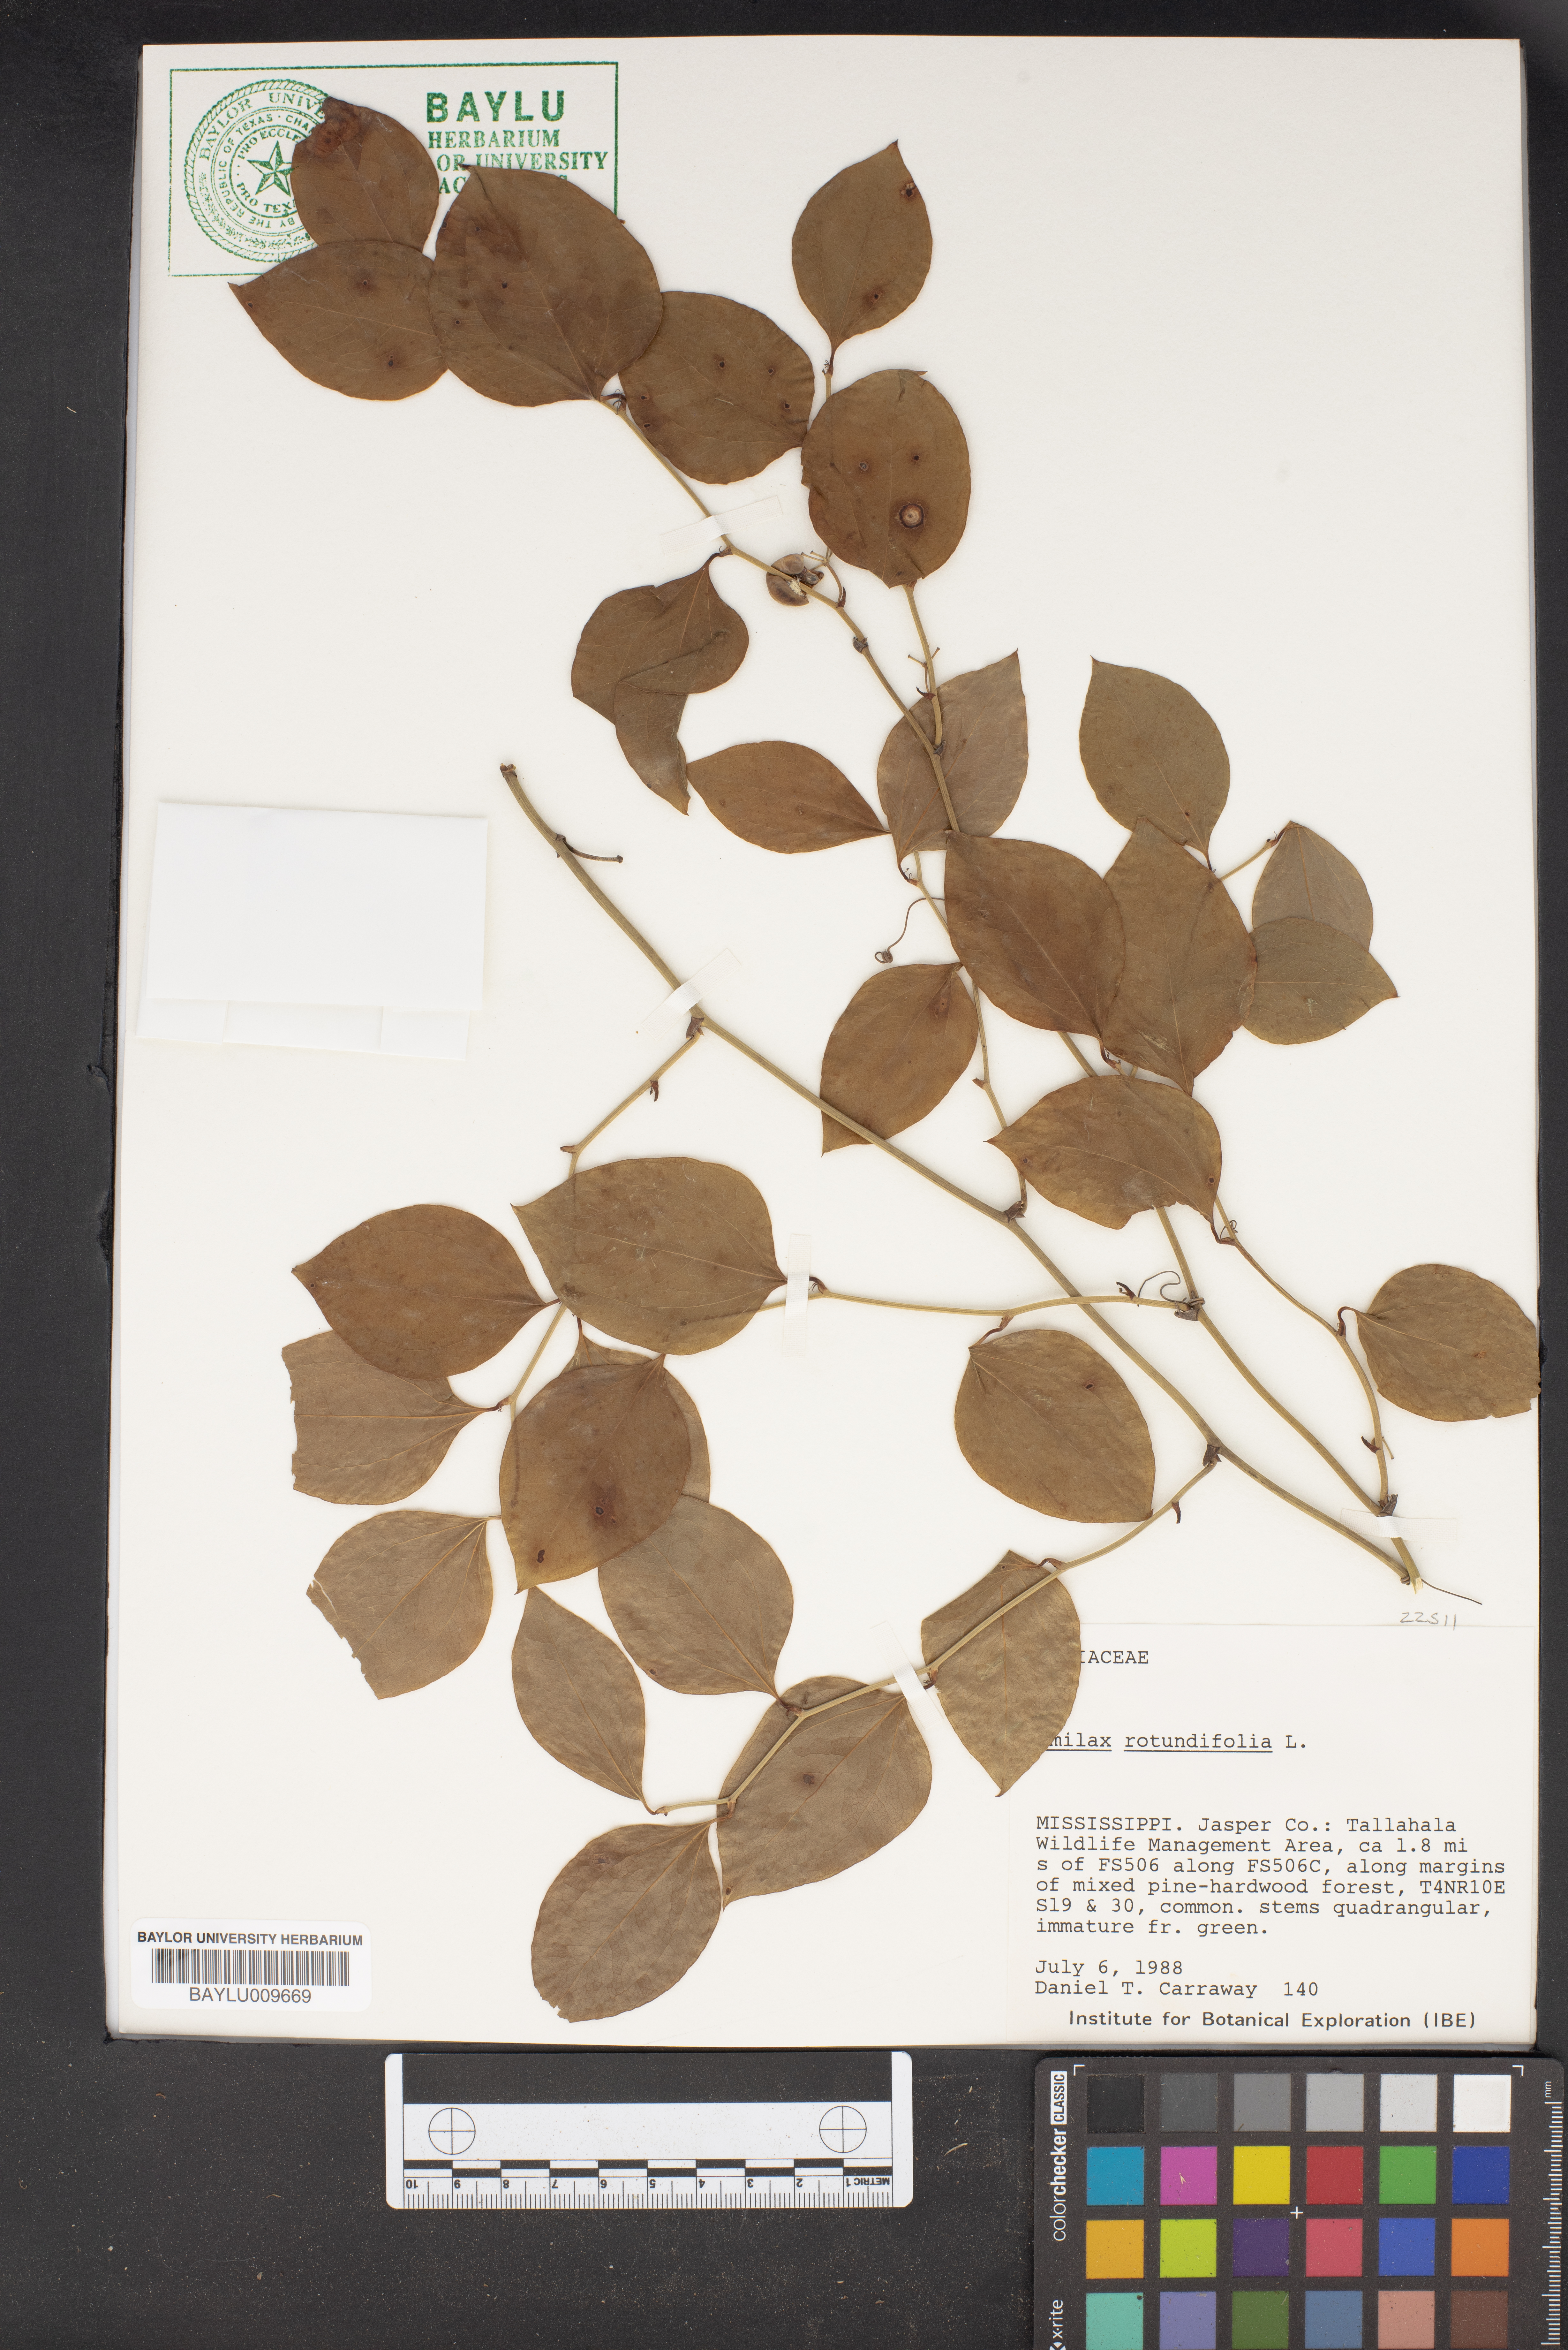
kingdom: Plantae
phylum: Tracheophyta
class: Liliopsida
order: Liliales
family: Smilacaceae
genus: Smilax
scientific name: Smilax rotundifolia
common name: Bullbriar
